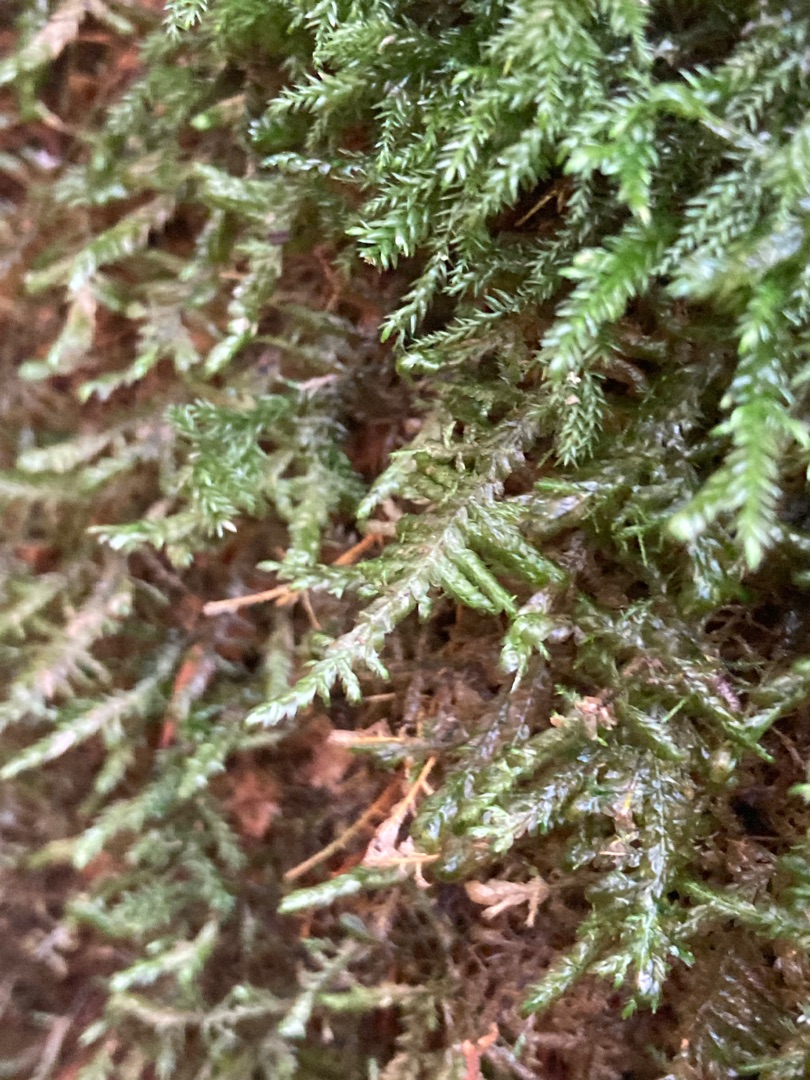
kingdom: Plantae
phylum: Bryophyta
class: Bryopsida
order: Hypnales
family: Neckeraceae
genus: Alleniella
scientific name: Alleniella complanata
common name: Almindelig fladmos
